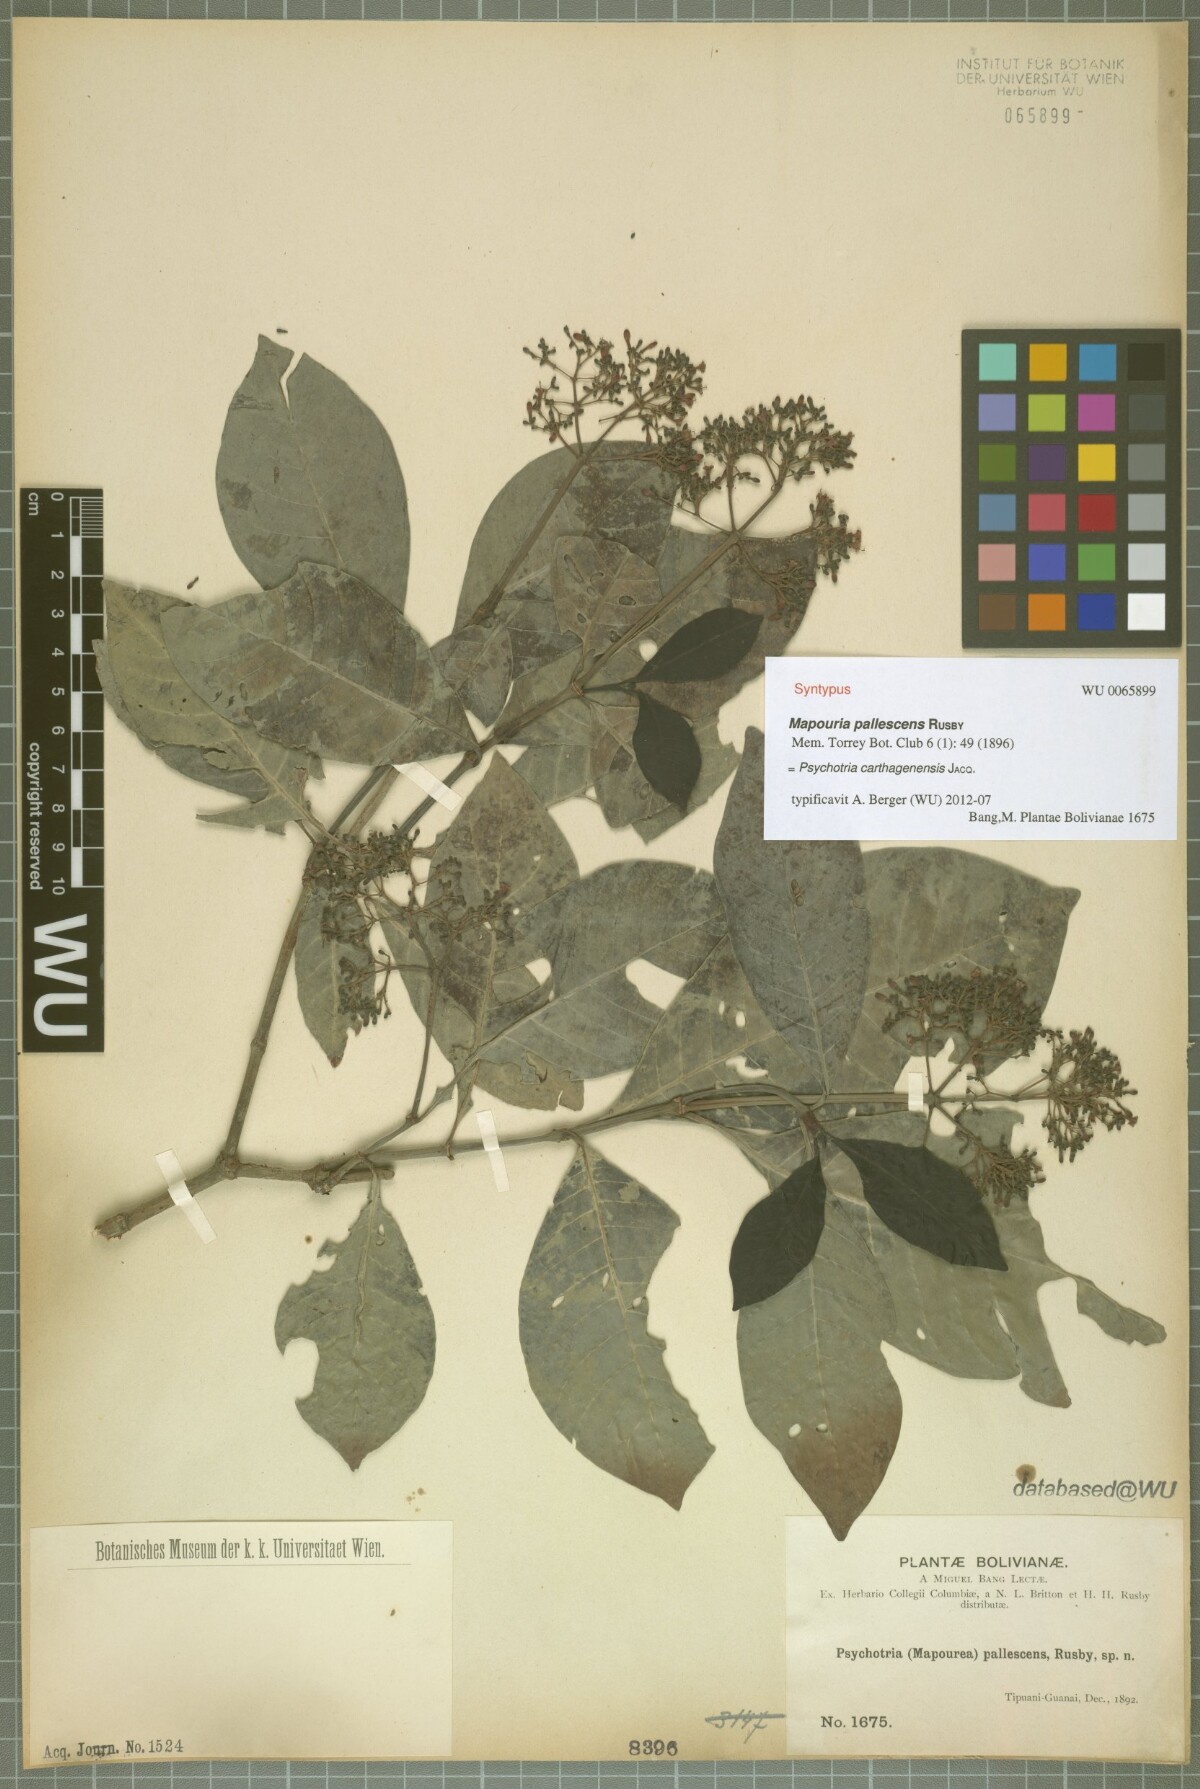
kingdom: Plantae
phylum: Tracheophyta
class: Magnoliopsida
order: Gentianales
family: Rubiaceae
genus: Psychotria
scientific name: Psychotria carthagenensis
